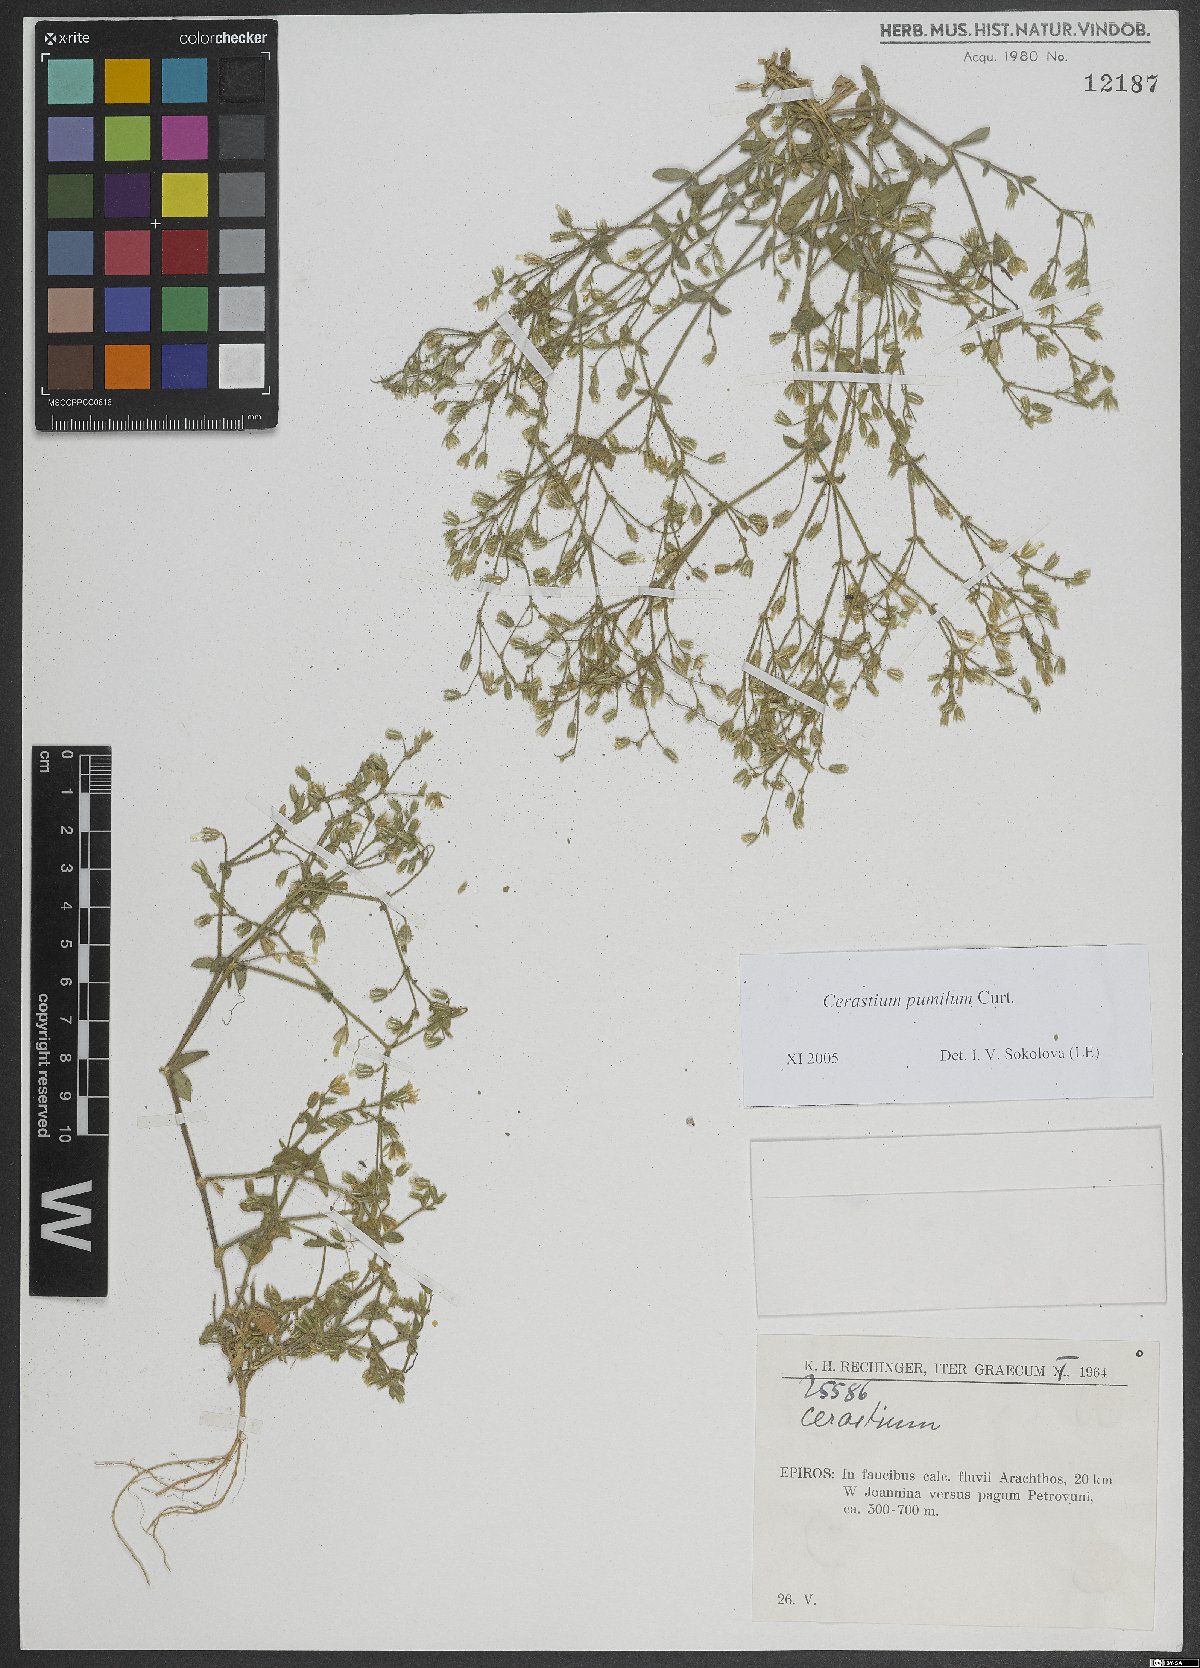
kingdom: Plantae
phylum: Tracheophyta
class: Magnoliopsida
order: Caryophyllales
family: Caryophyllaceae
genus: Cerastium
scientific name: Cerastium pumilum
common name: Dwarf mouse-ear
